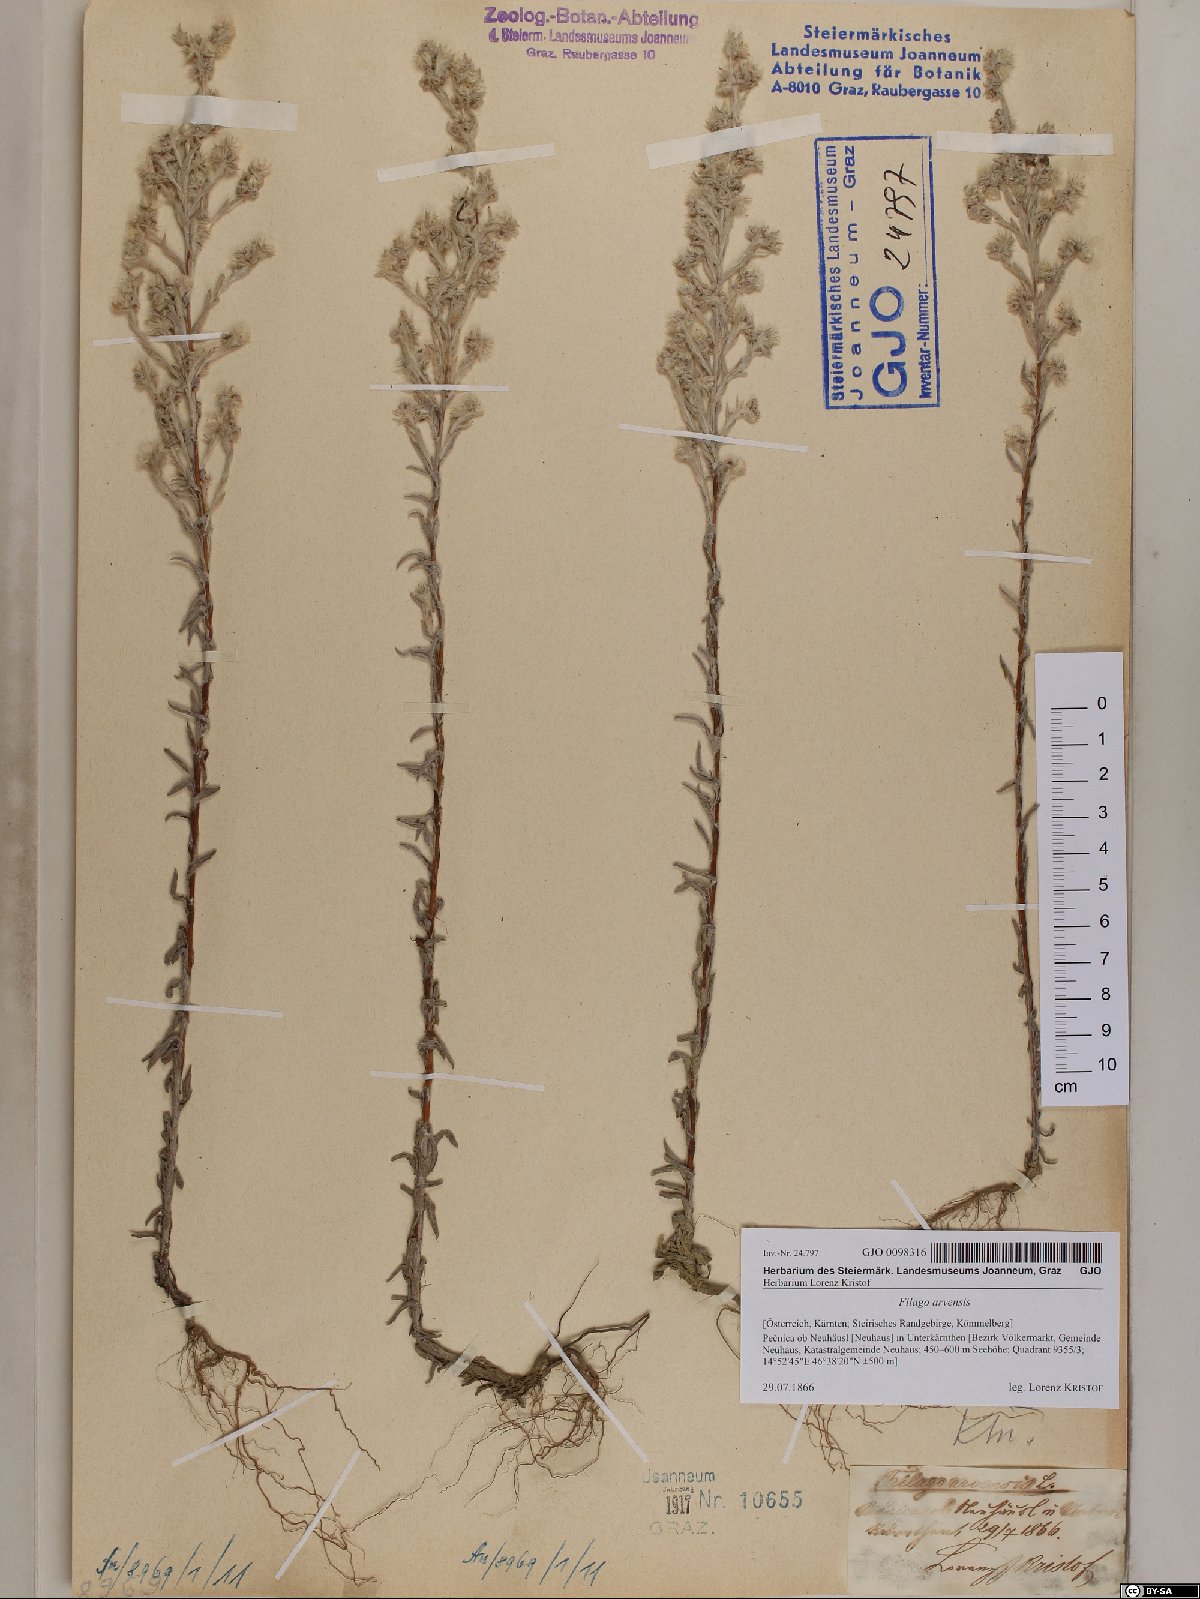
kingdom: Plantae
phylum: Tracheophyta
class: Magnoliopsida
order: Asterales
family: Asteraceae
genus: Filago
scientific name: Filago arvensis
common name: Field cudweed
